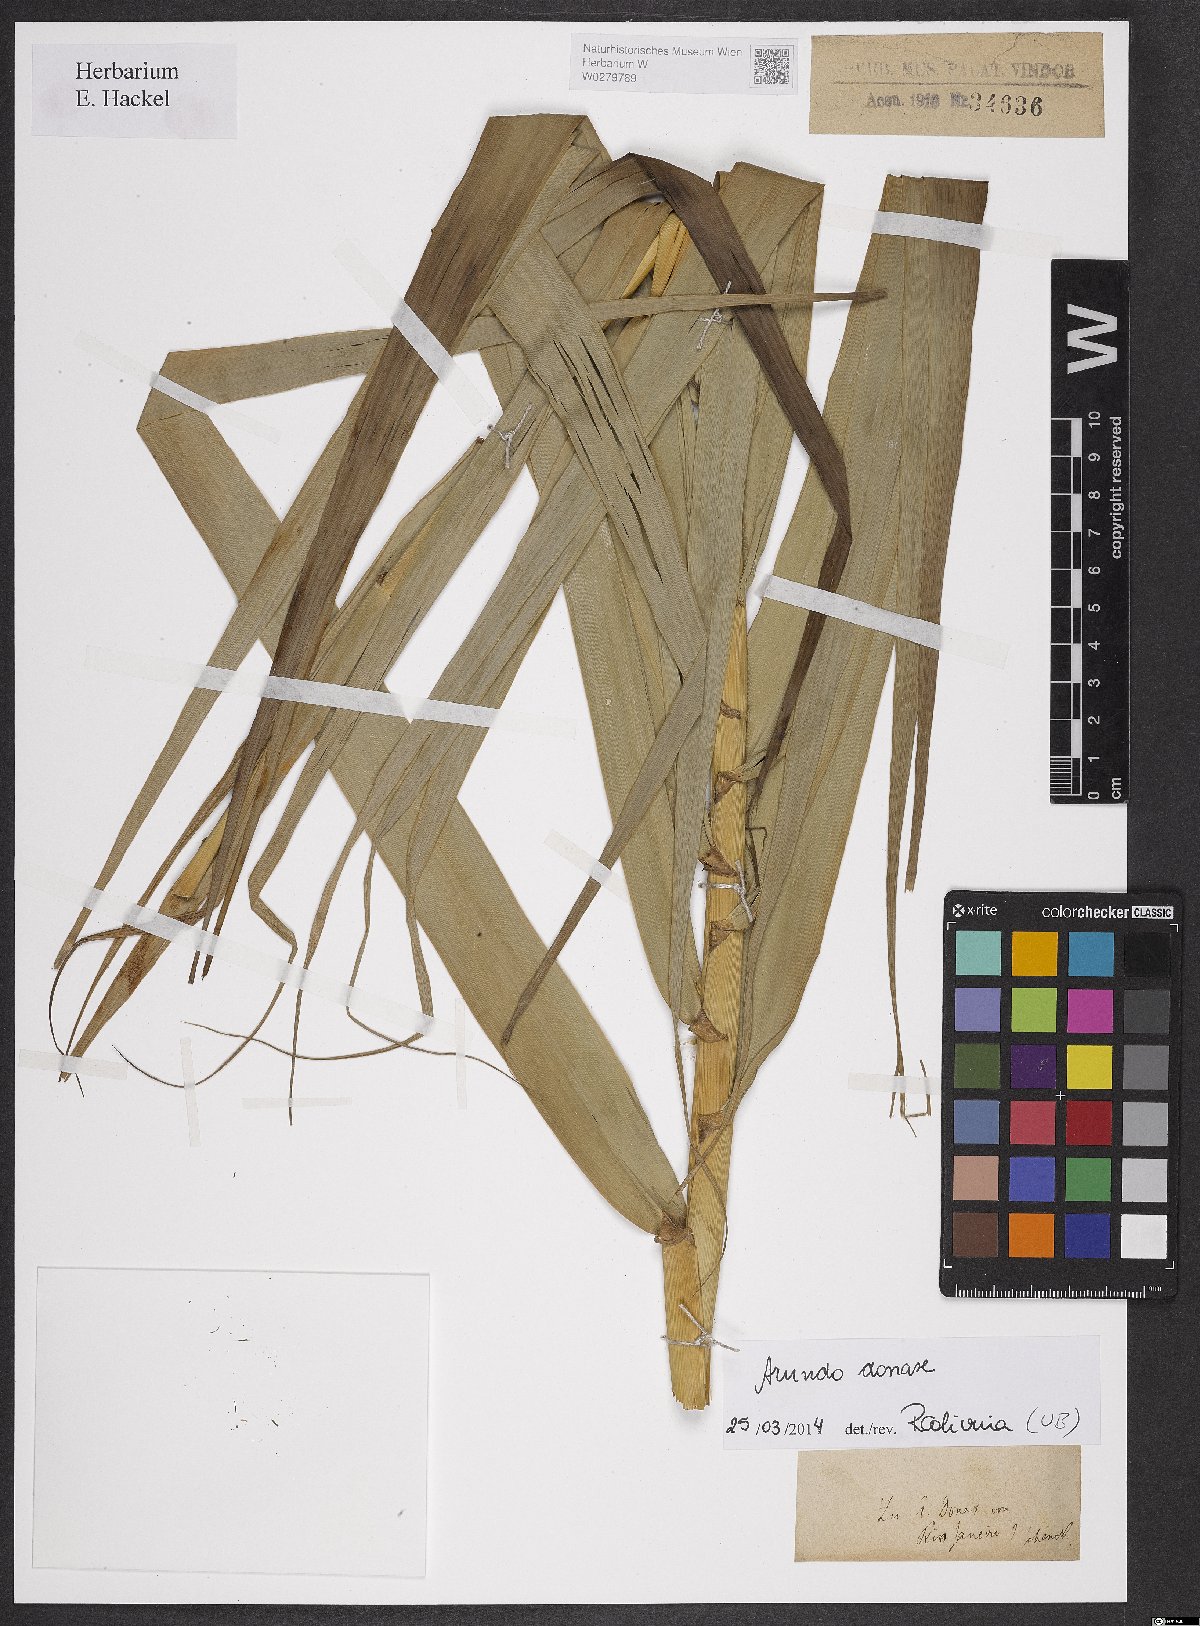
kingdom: Plantae
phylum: Tracheophyta
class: Liliopsida
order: Poales
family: Poaceae
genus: Arundo
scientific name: Arundo donax
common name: Giant reed
